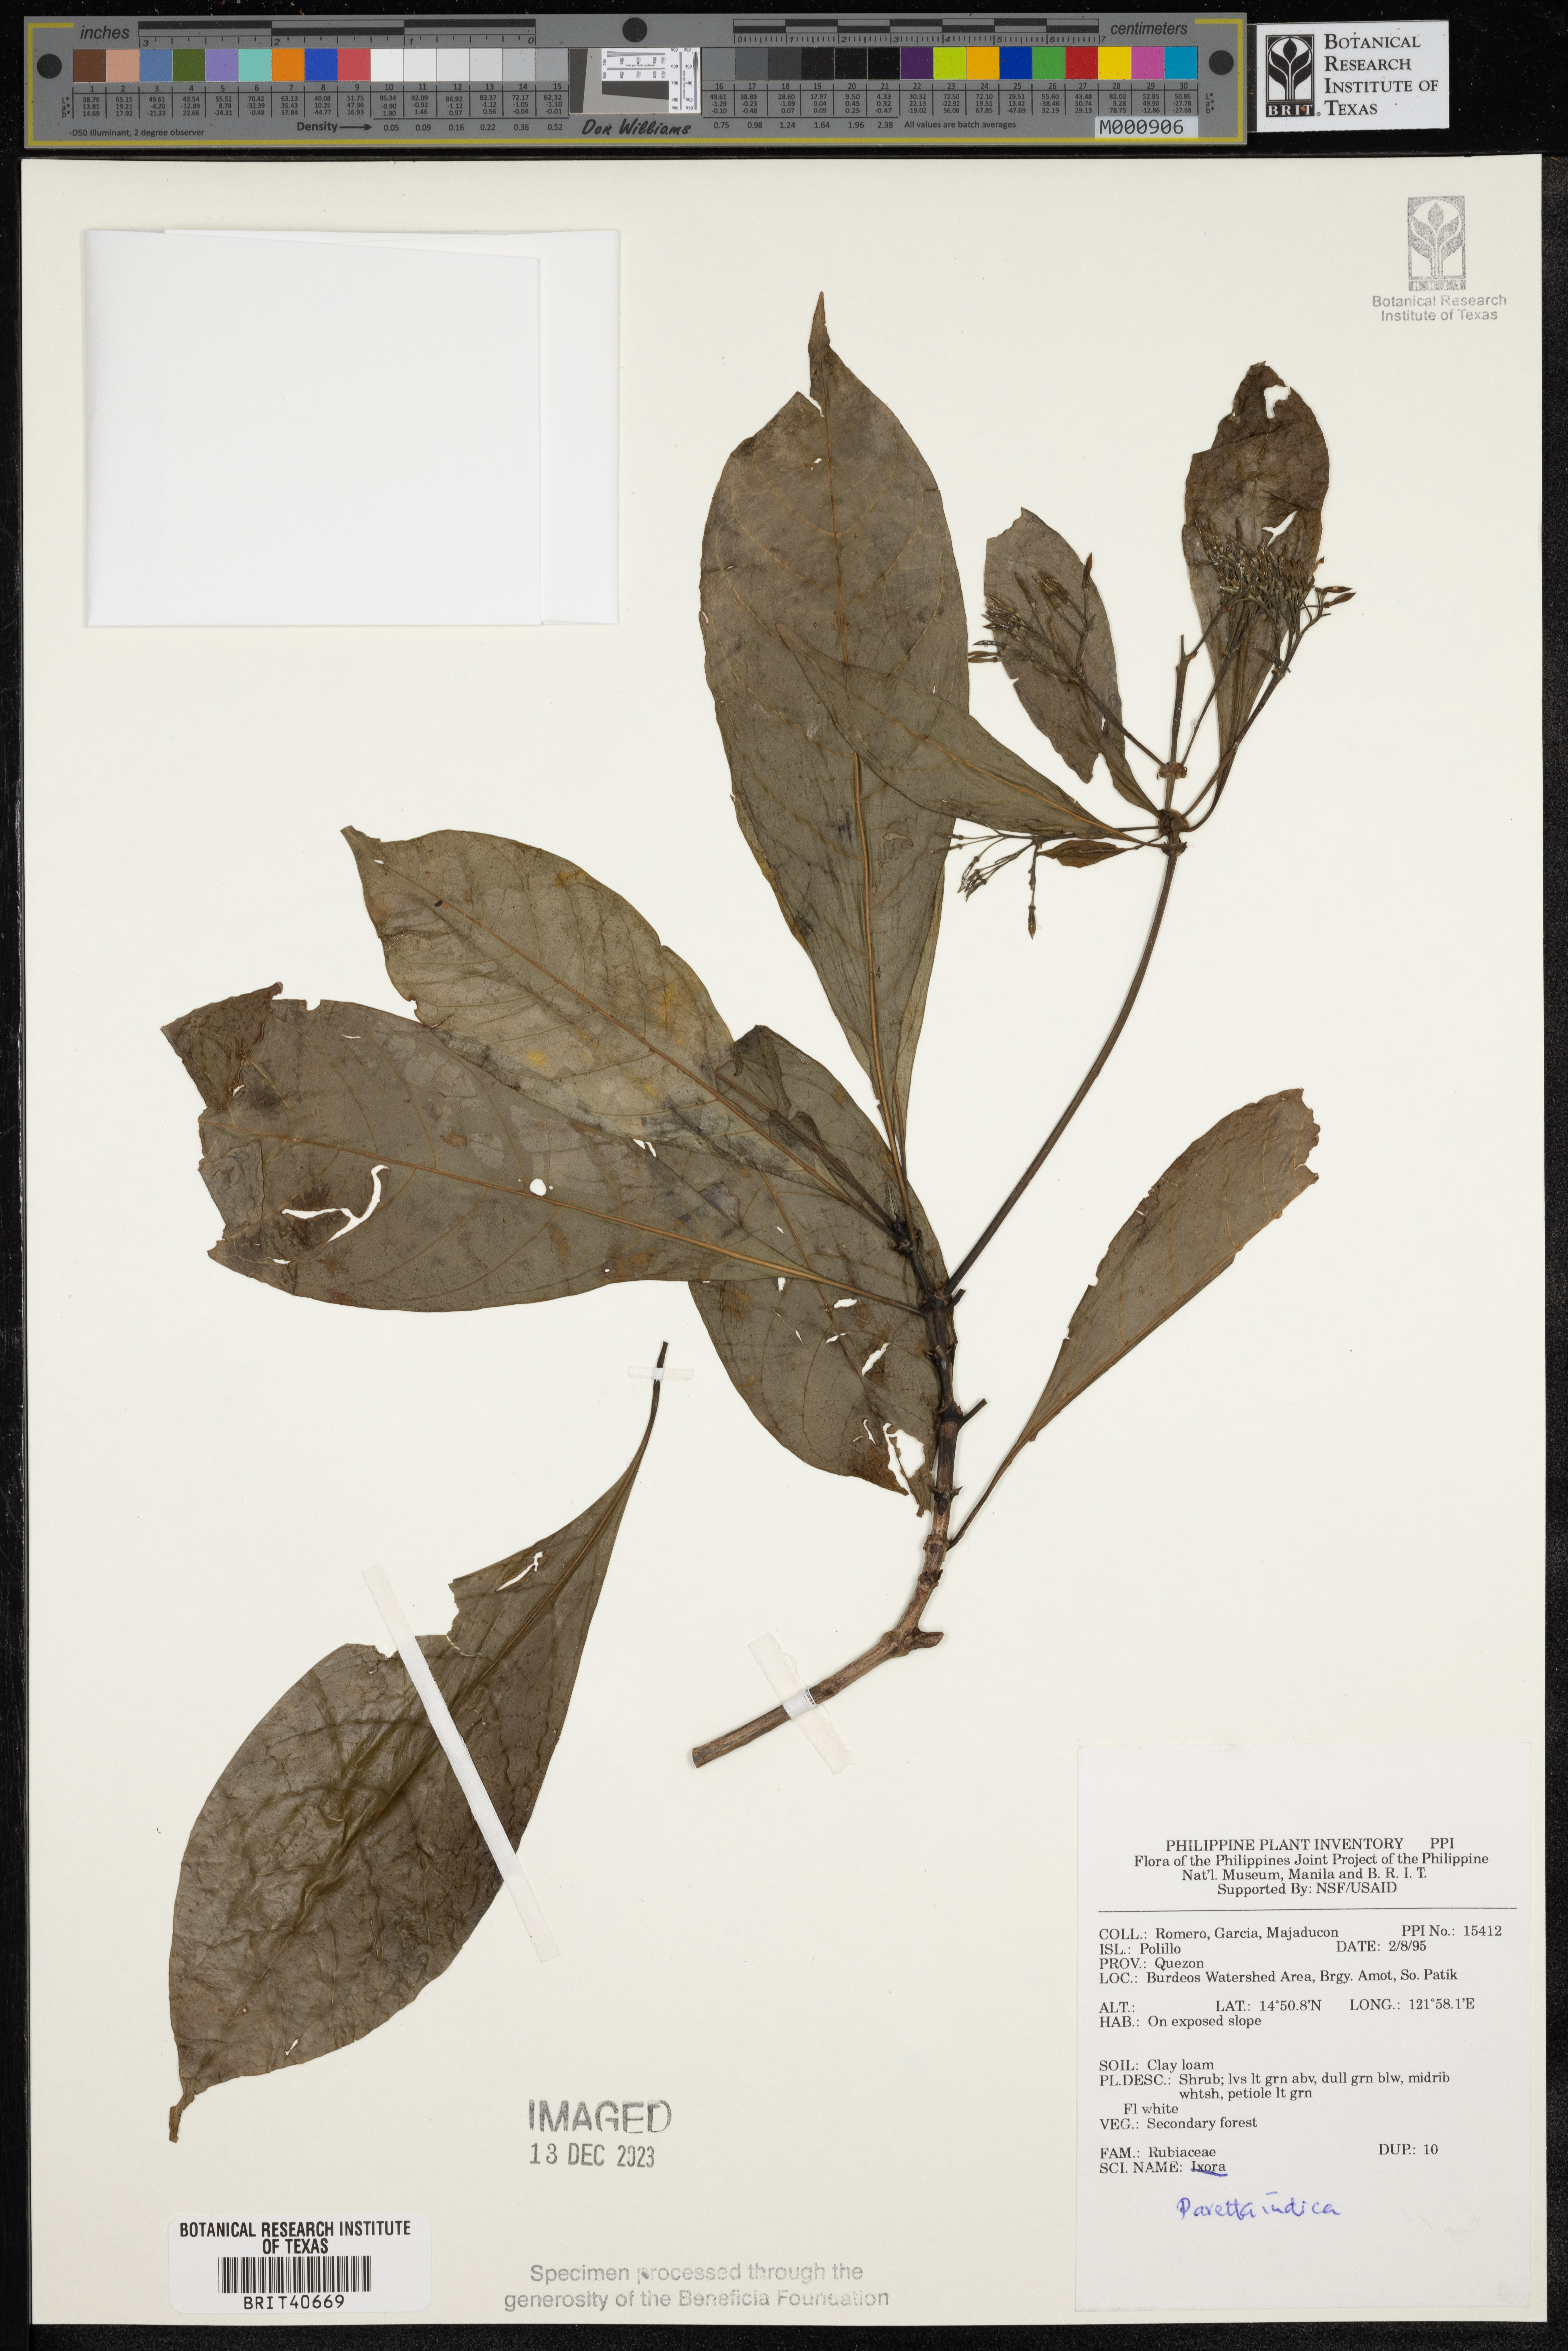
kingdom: Plantae
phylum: Tracheophyta
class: Magnoliopsida
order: Gentianales
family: Rubiaceae
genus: Pavetta
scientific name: Pavetta indica
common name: Indian pavetta
